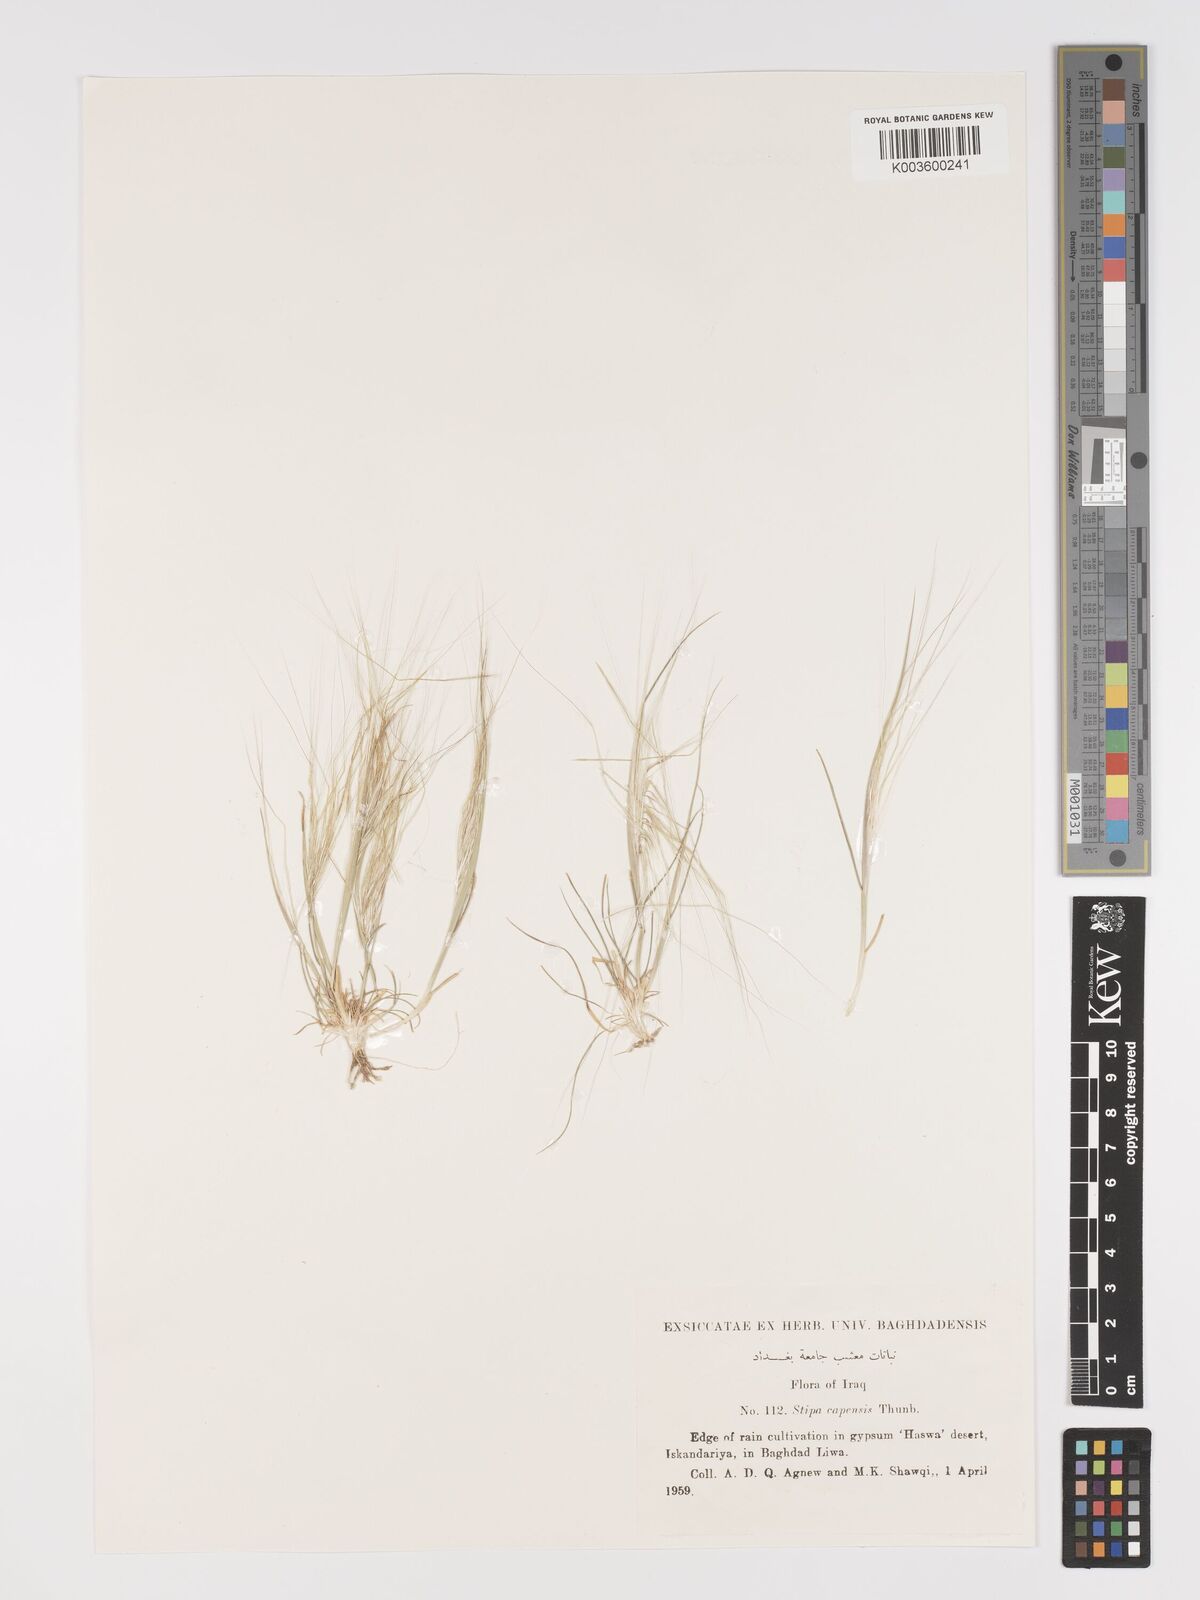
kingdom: Plantae
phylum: Tracheophyta
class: Liliopsida
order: Poales
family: Poaceae
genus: Stipellula
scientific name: Stipellula capensis
